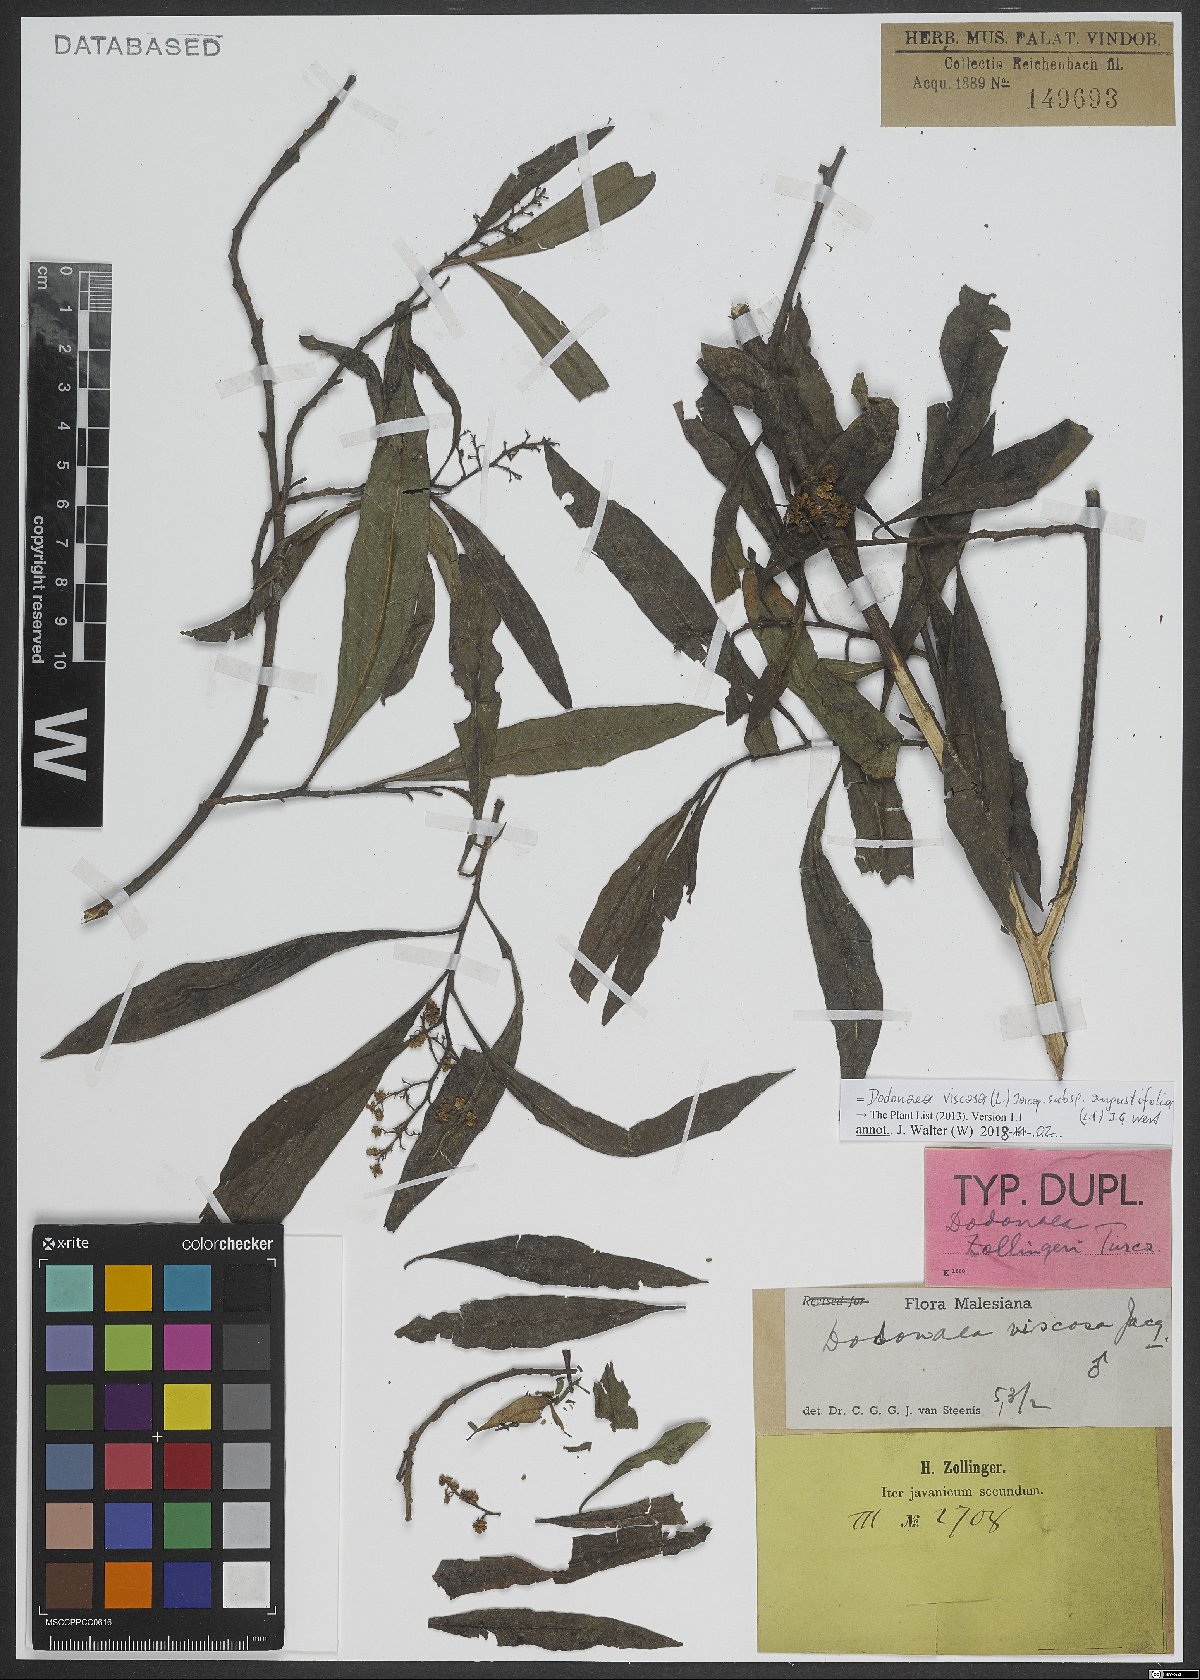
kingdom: Plantae
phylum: Tracheophyta
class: Magnoliopsida
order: Sapindales
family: Sapindaceae
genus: Dodonaea
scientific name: Dodonaea viscosa
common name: Hopbush
